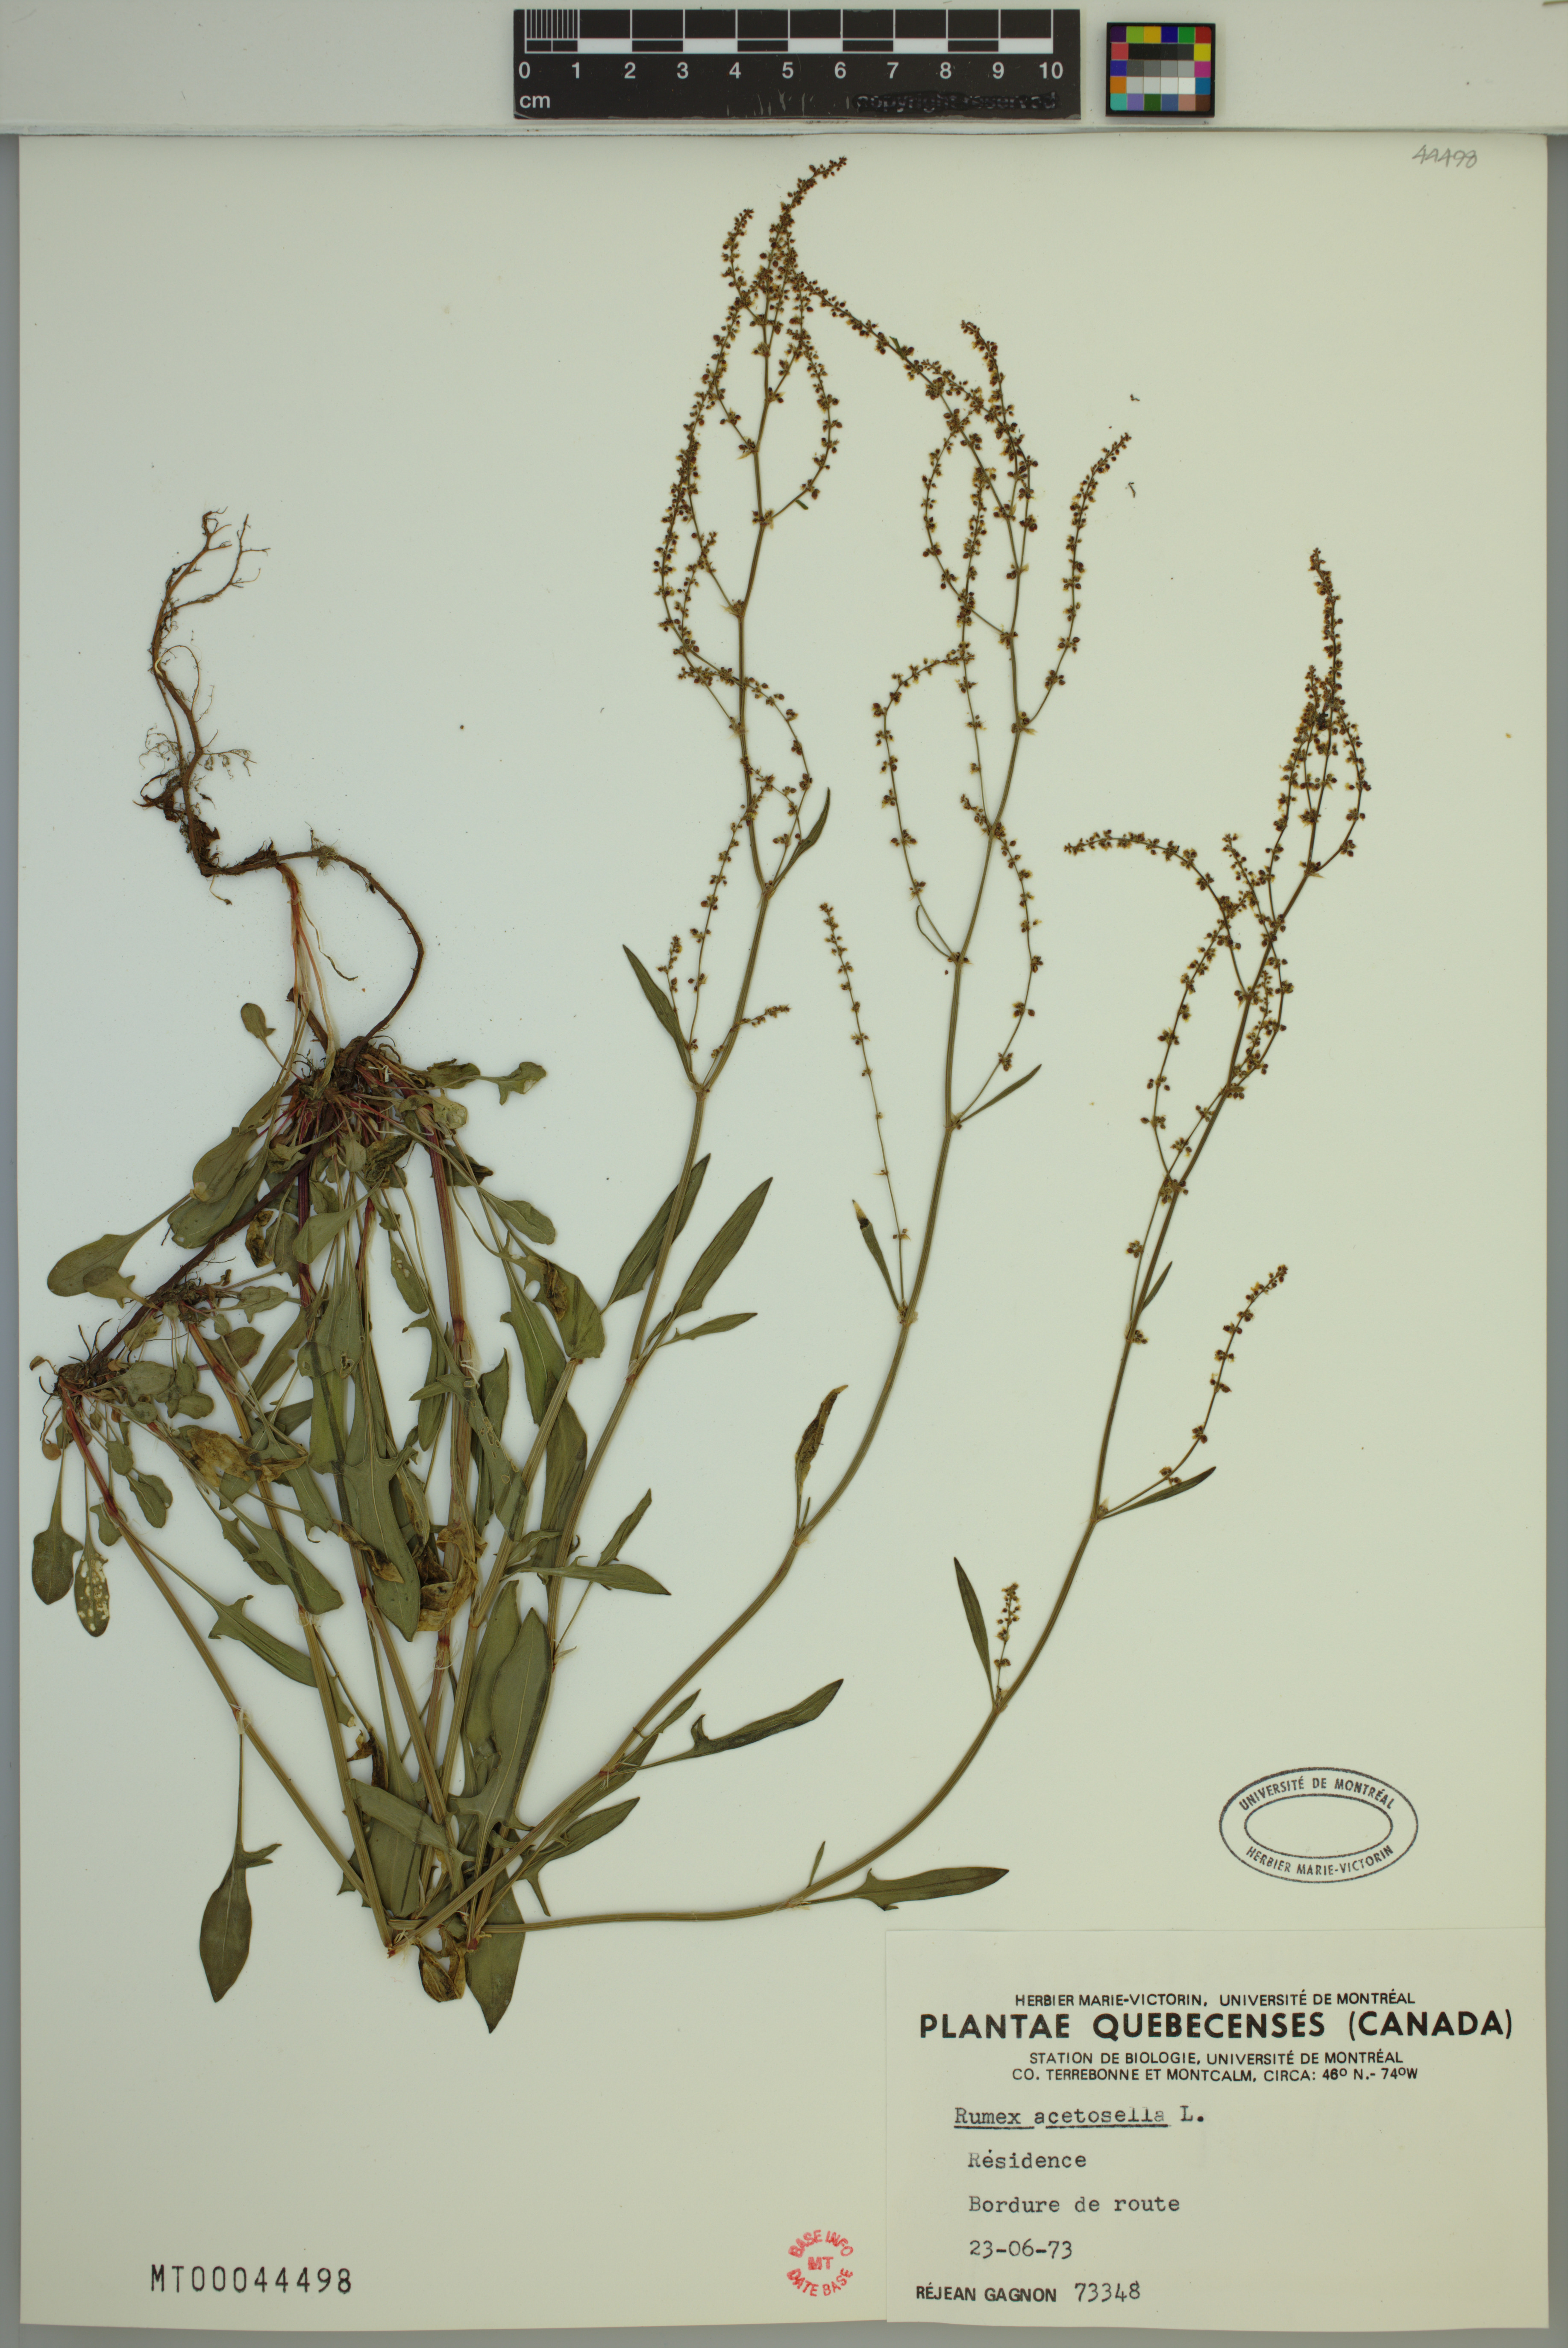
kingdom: Plantae
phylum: Tracheophyta
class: Magnoliopsida
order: Caryophyllales
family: Polygonaceae
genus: Rumex
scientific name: Rumex acetosella
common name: Common sheep sorrel
